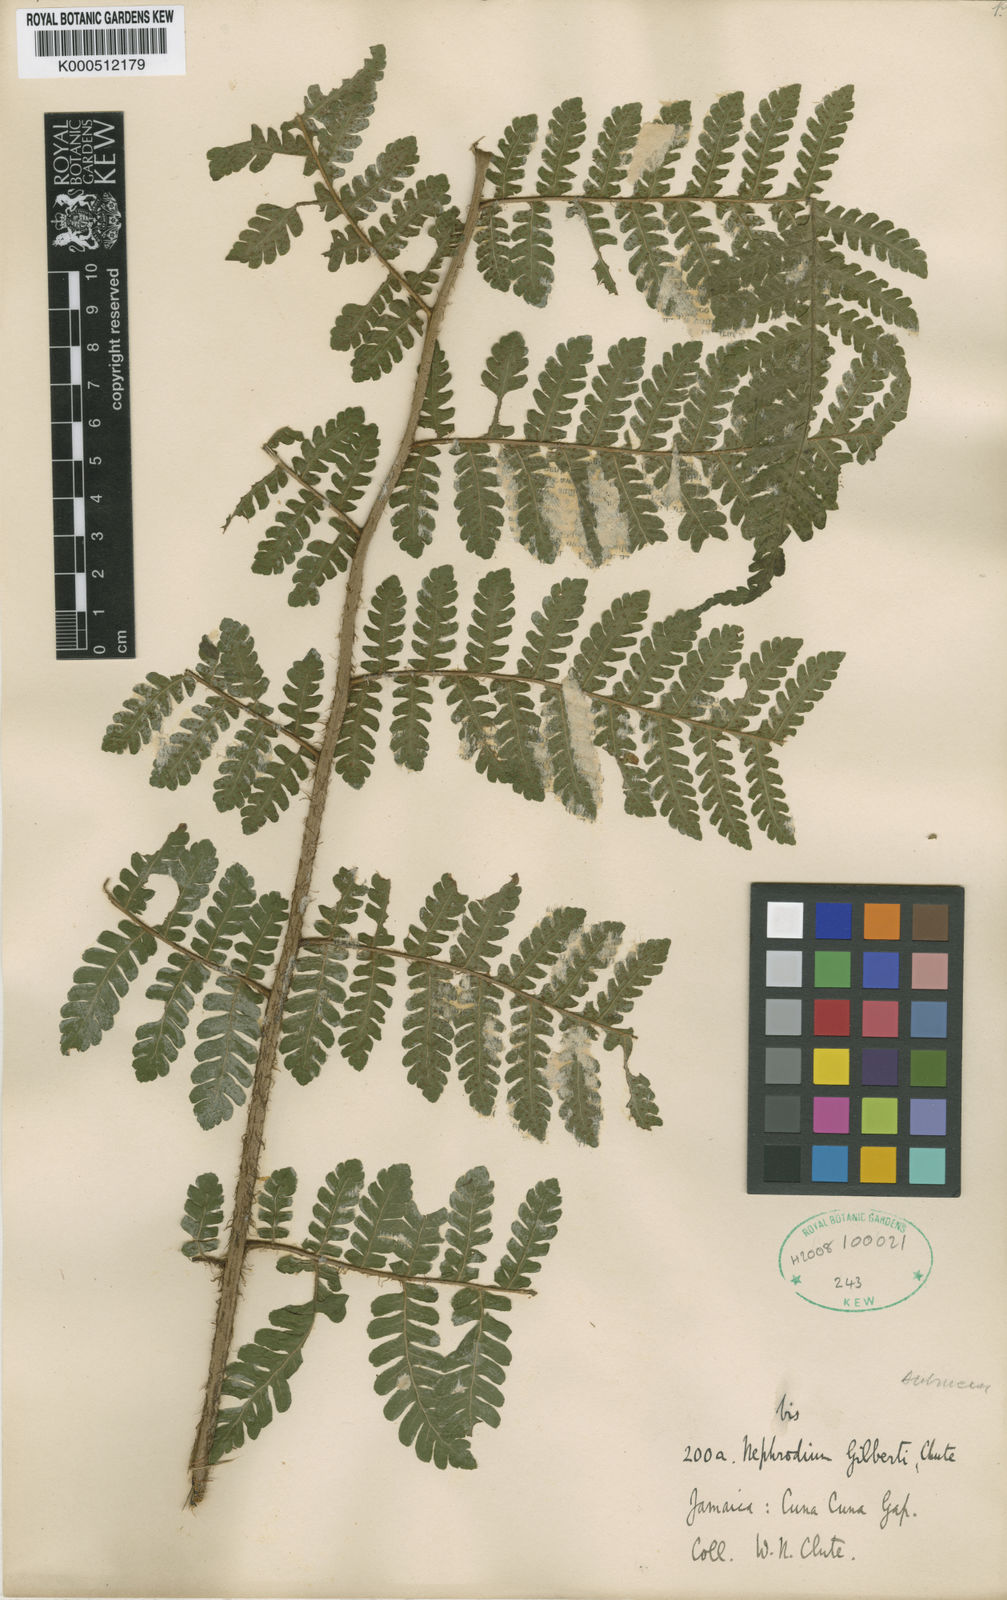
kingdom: Plantae
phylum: Tracheophyta
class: Polypodiopsida
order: Polypodiales
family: Dryopteridaceae
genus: Megalastrum
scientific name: Megalastrum gilbertii
